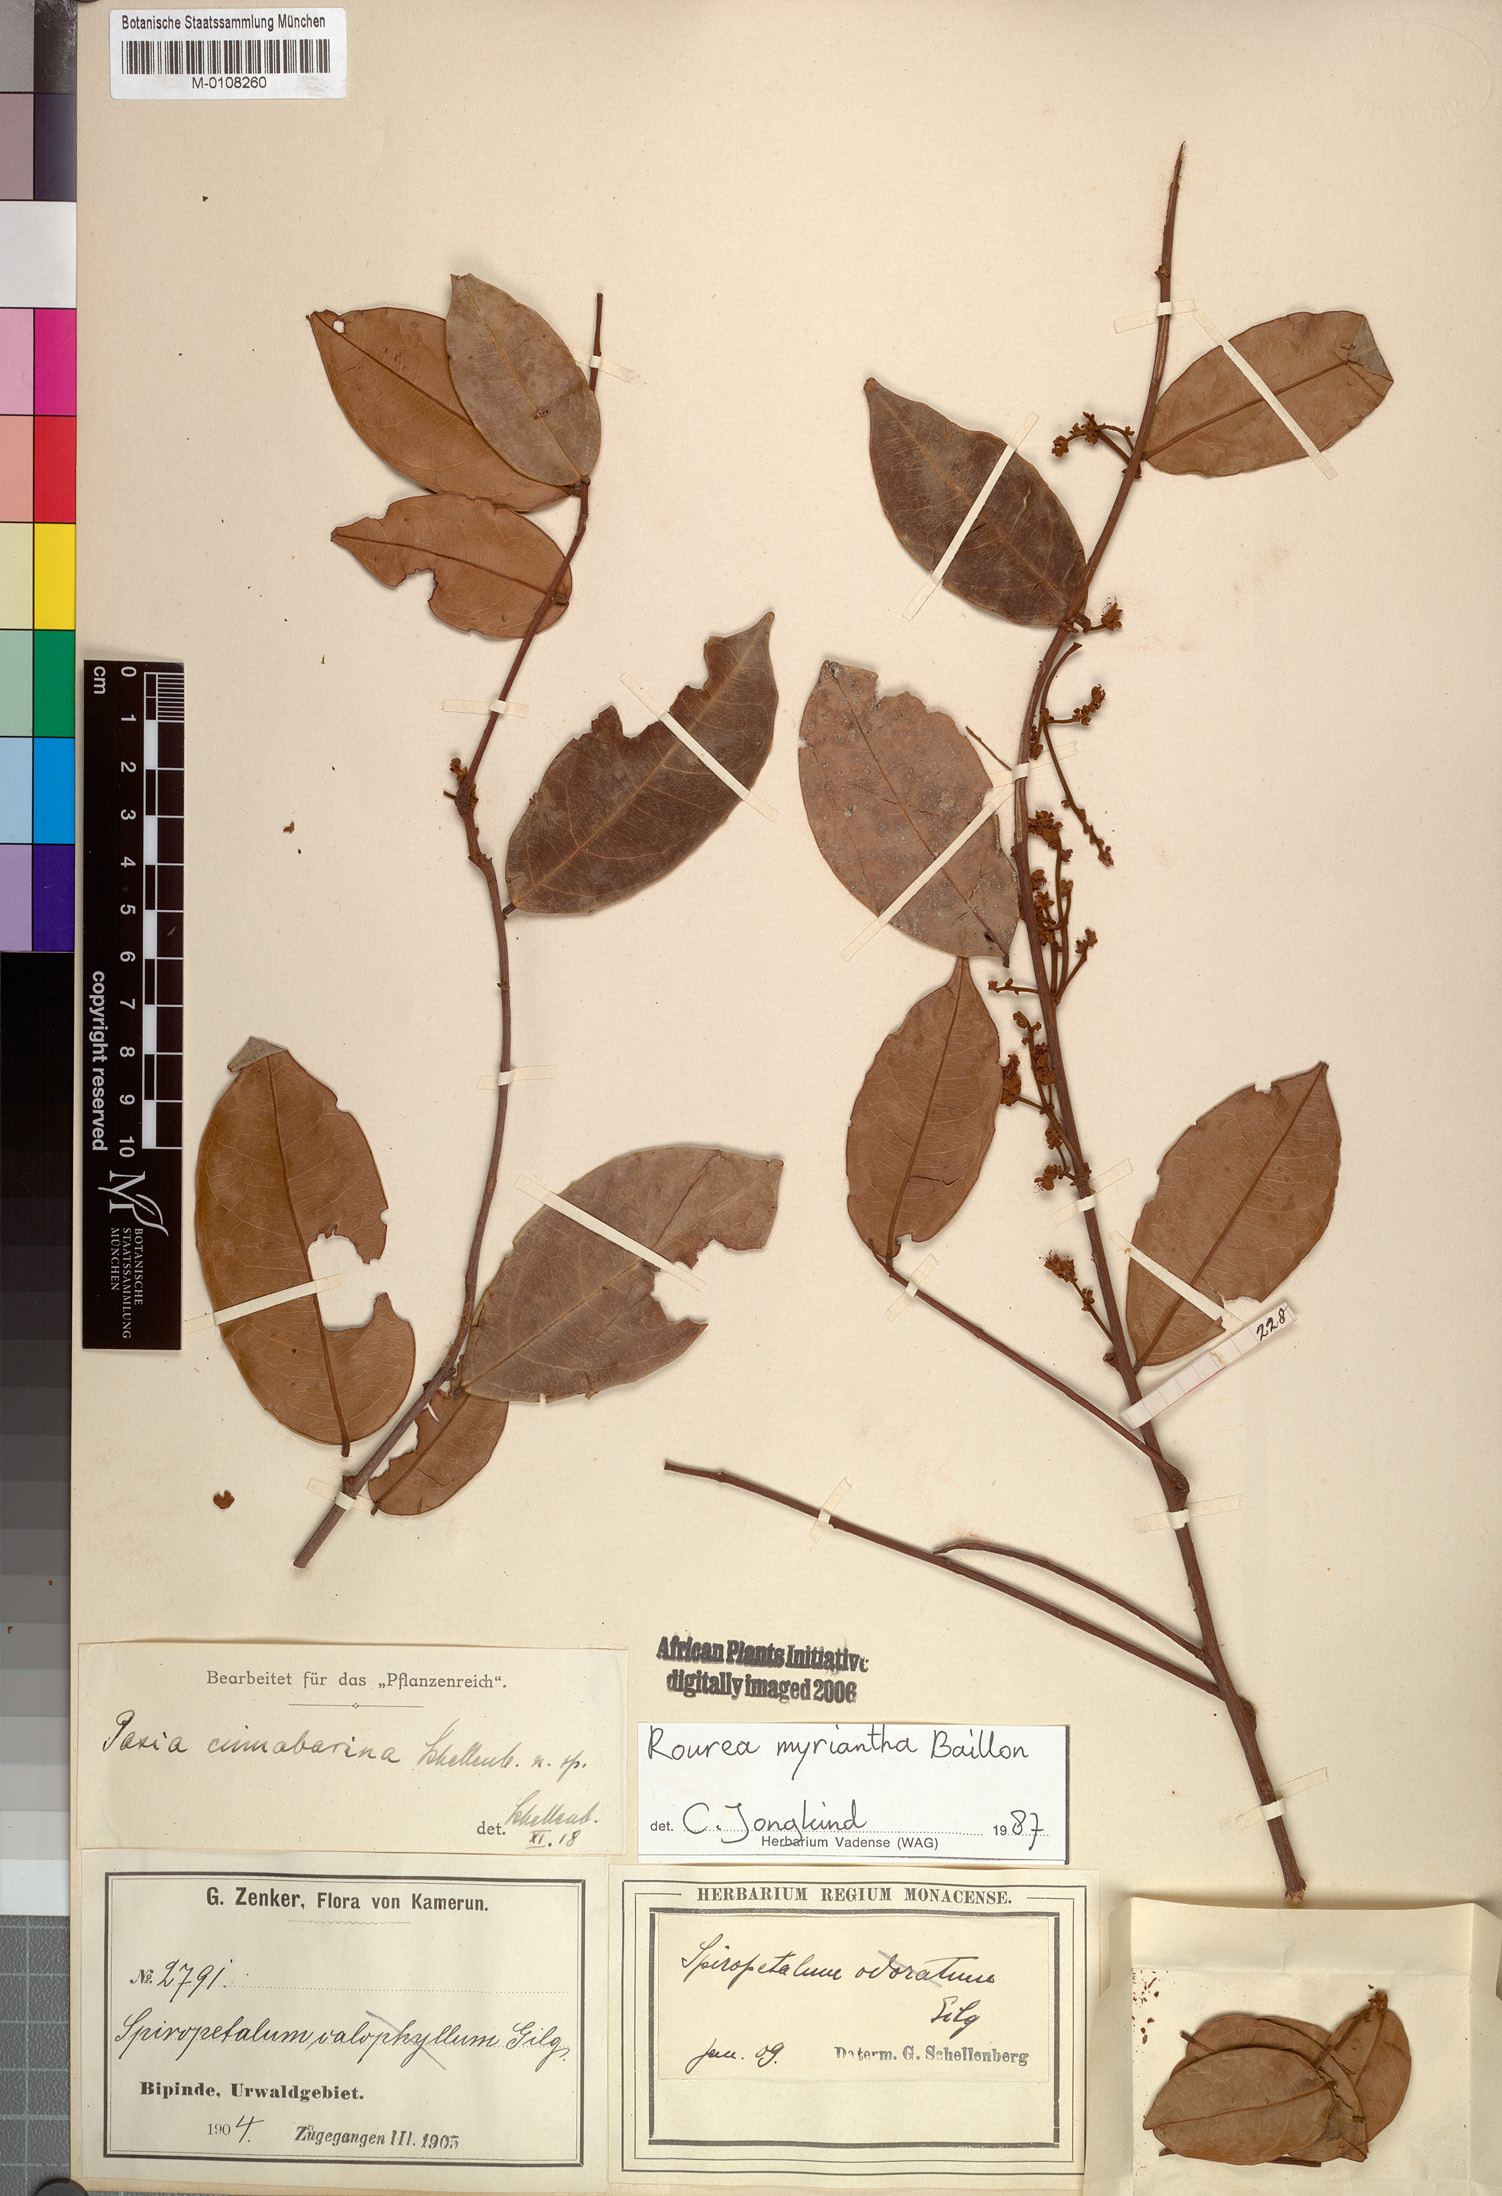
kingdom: Plantae
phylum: Tracheophyta
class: Magnoliopsida
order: Oxalidales
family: Connaraceae
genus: Rourea
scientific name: Rourea myriantha
